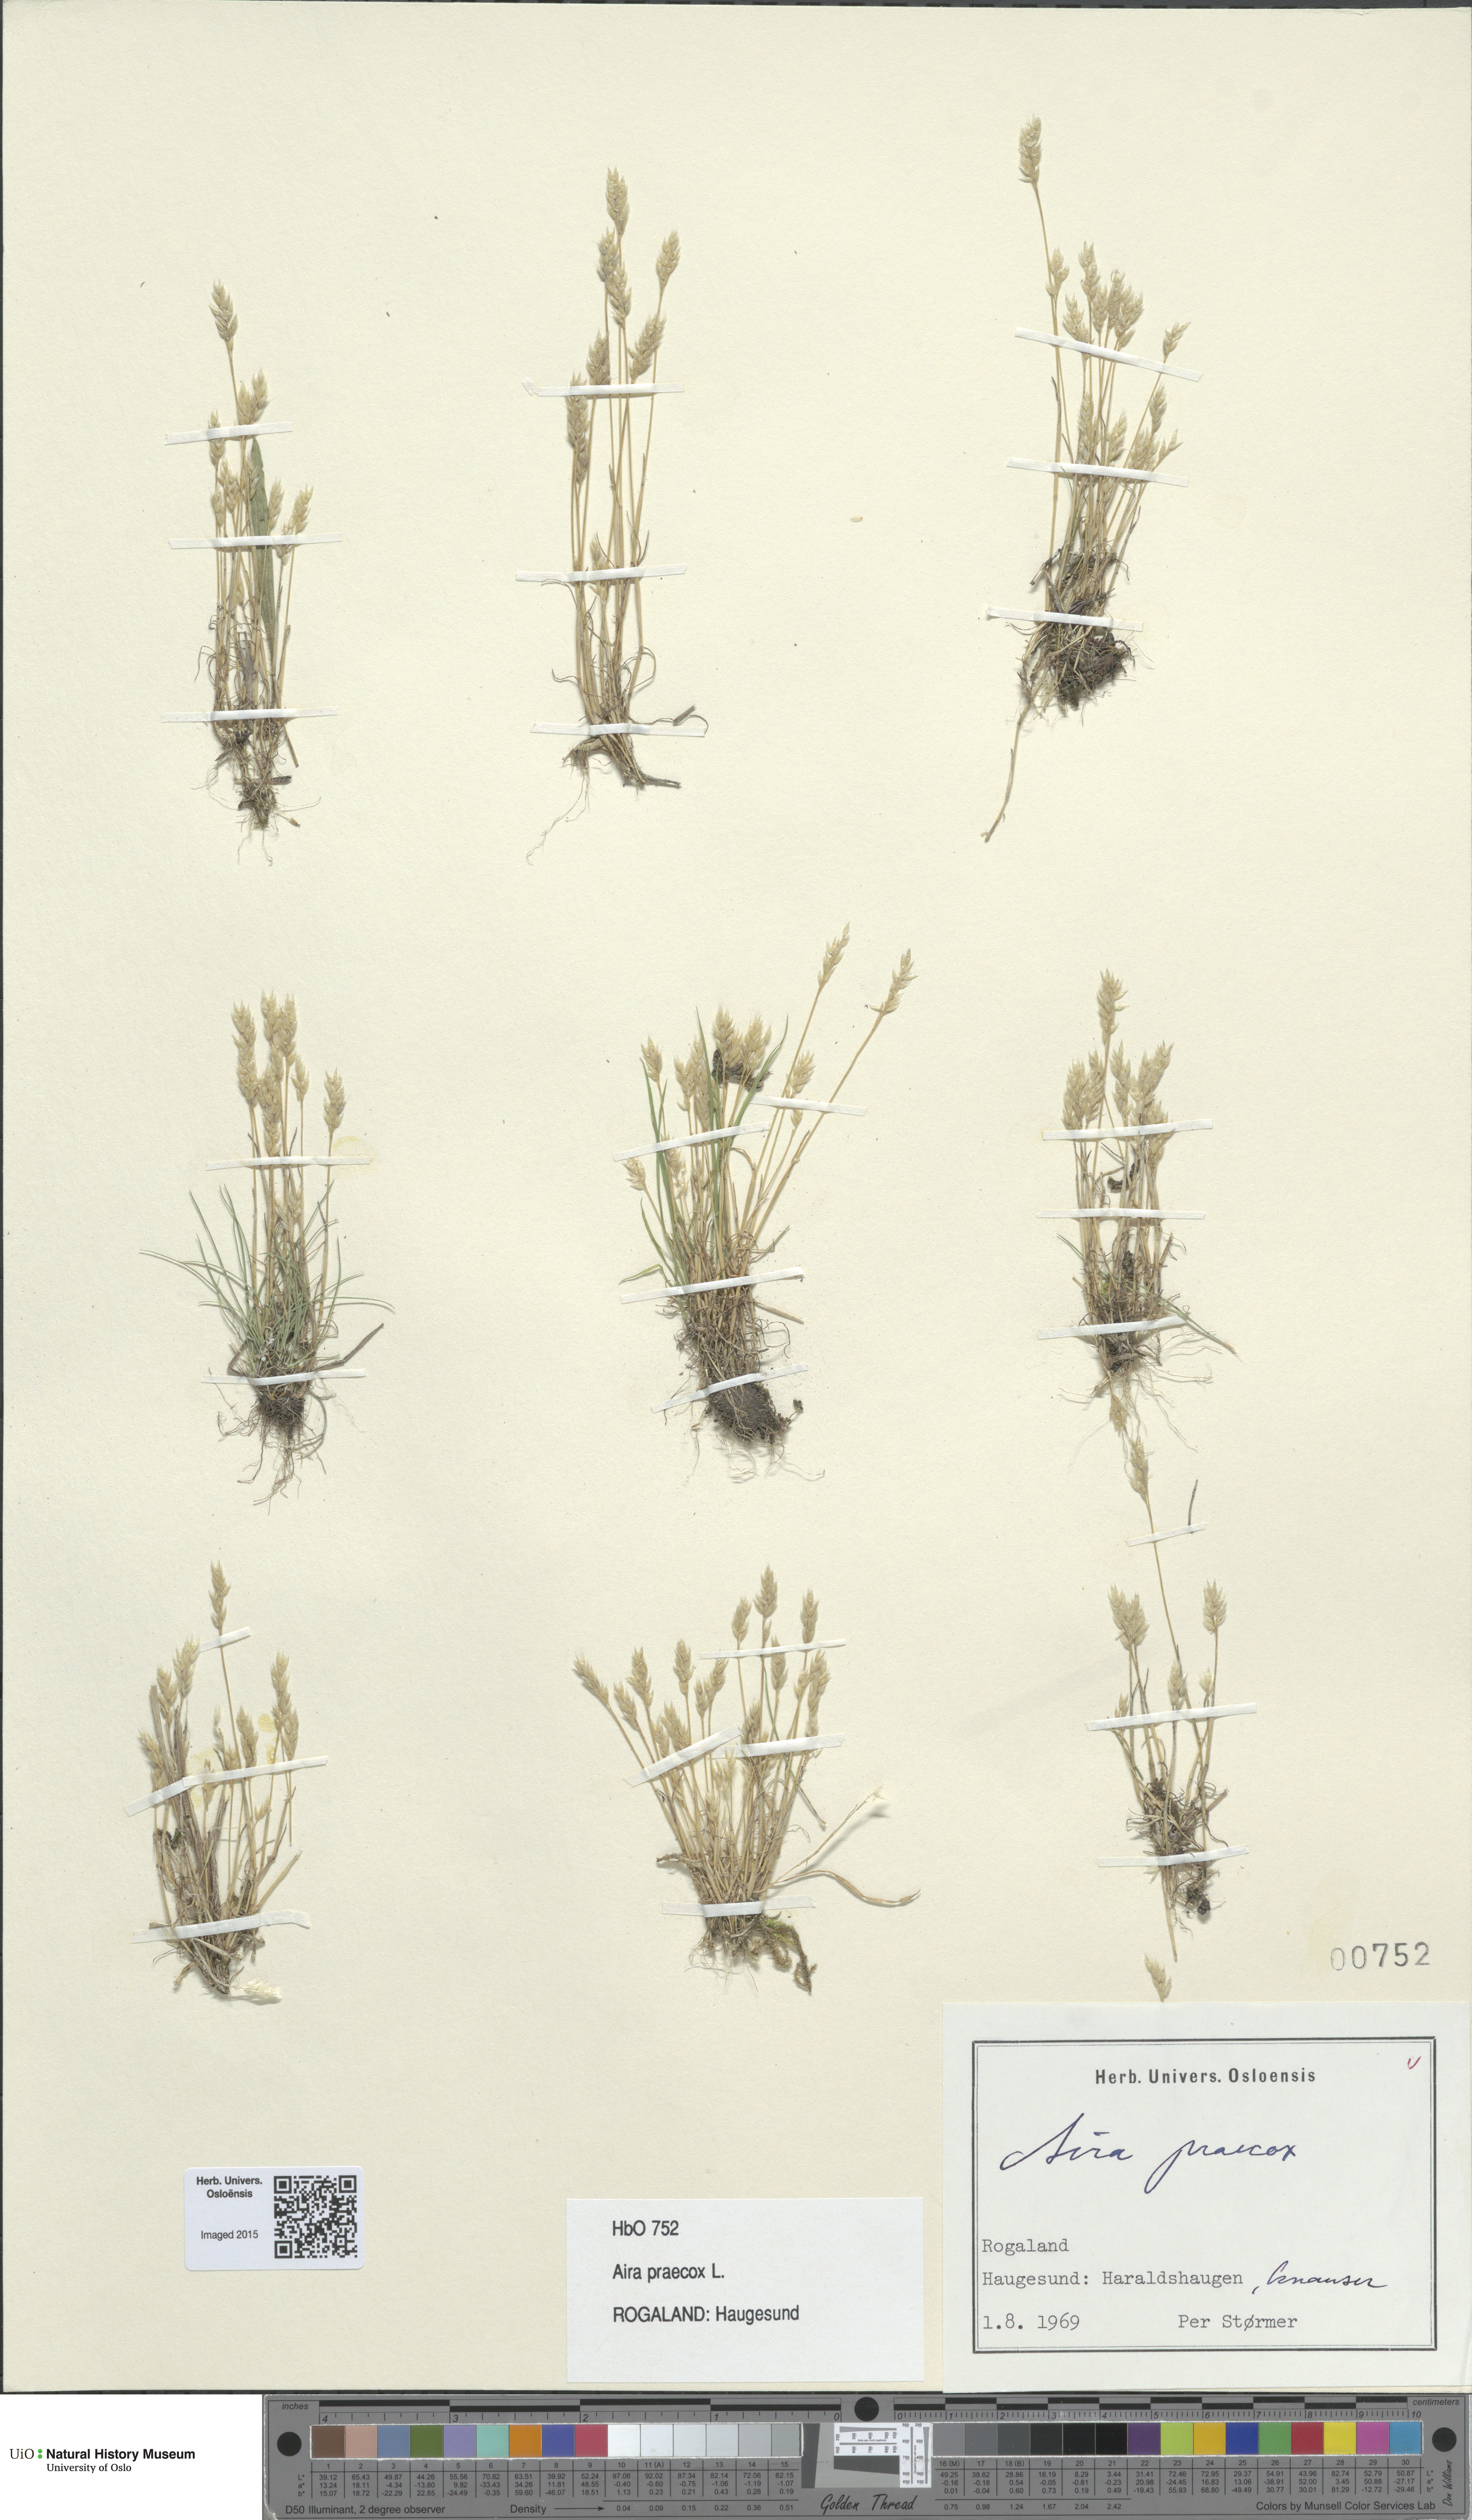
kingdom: Plantae
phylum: Tracheophyta
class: Liliopsida
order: Poales
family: Poaceae
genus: Aira
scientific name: Aira praecox
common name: Early hair-grass
